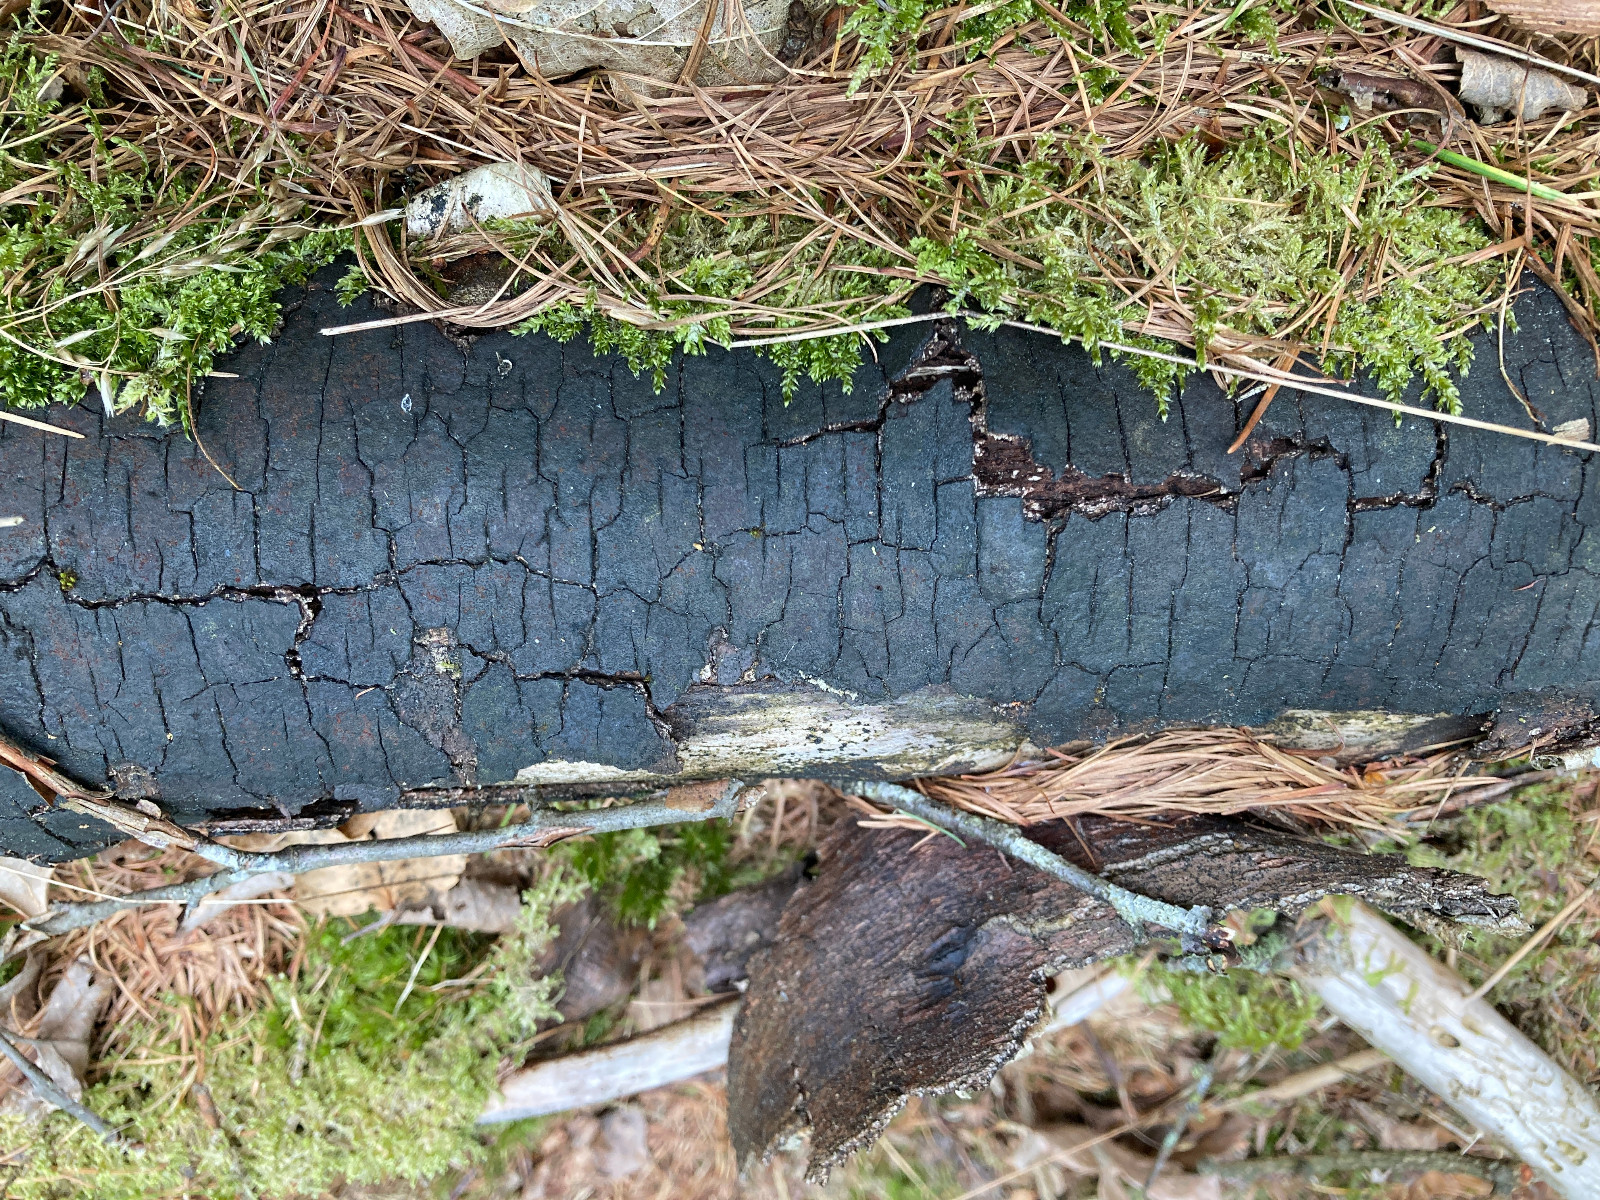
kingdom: Fungi
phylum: Ascomycota
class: Sordariomycetes
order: Xylariales
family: Diatrypaceae
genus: Diatrype
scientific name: Diatrype
